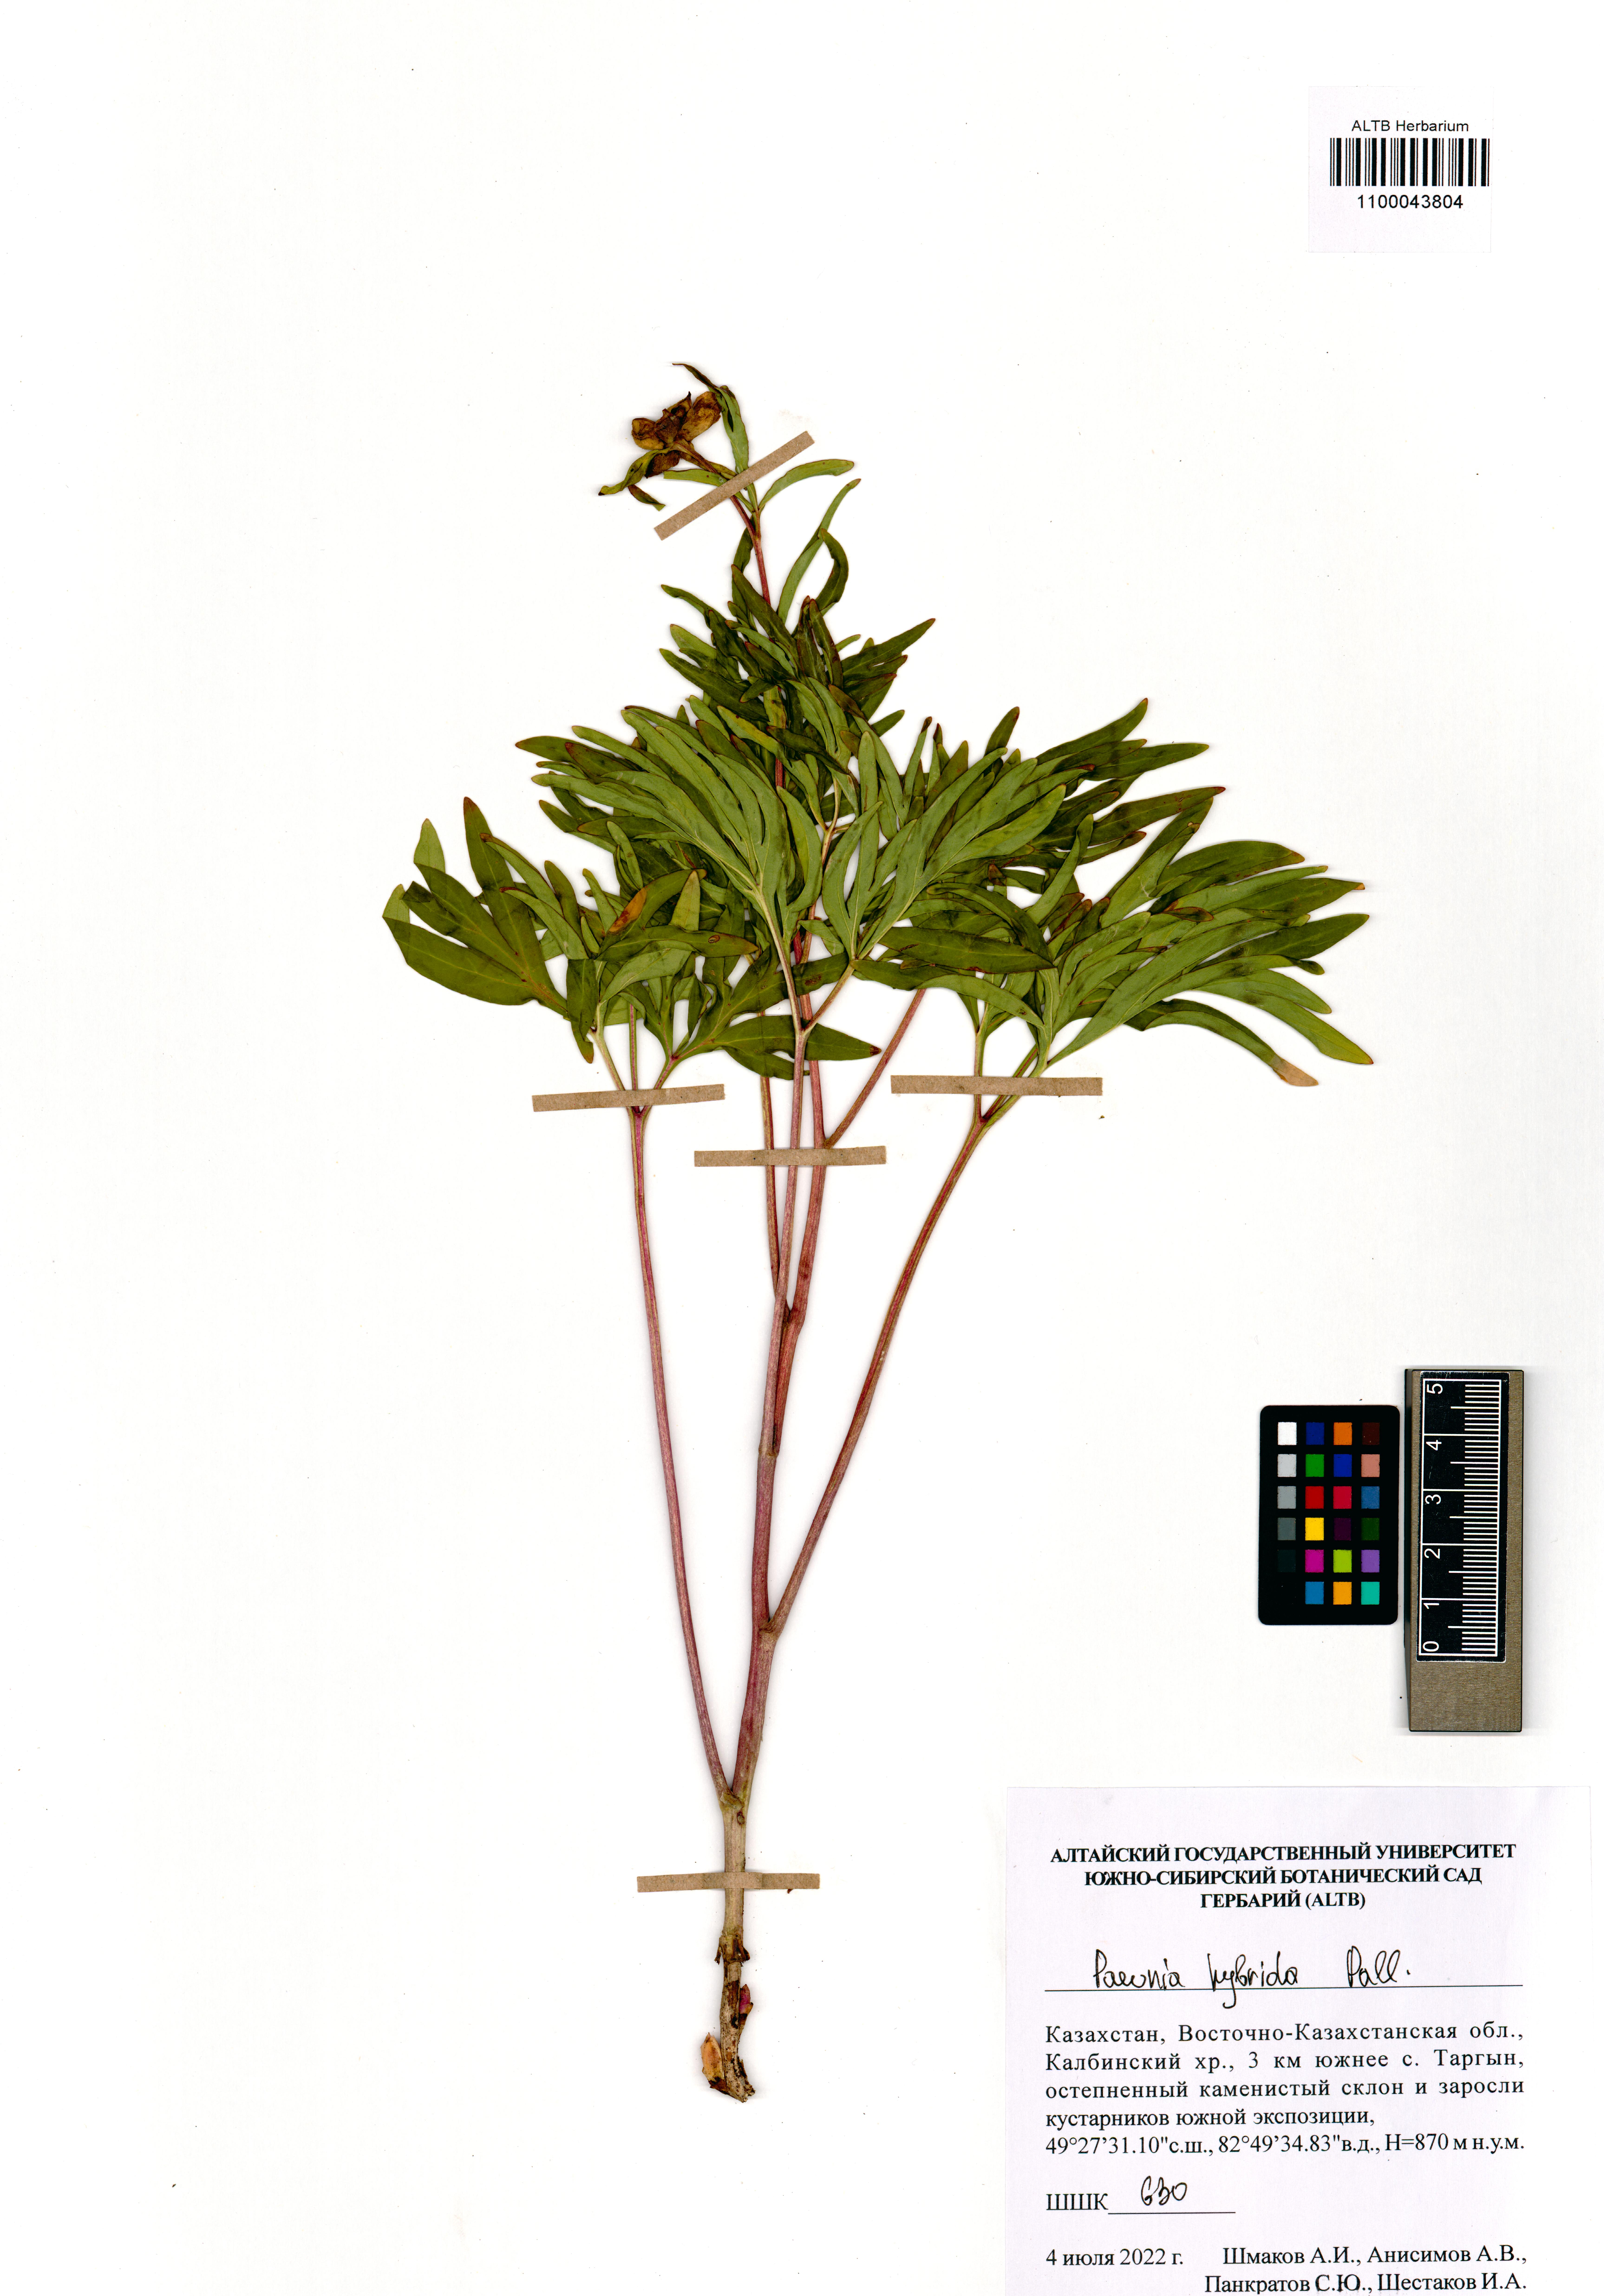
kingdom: Plantae
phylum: Tracheophyta
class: Magnoliopsida
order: Saxifragales
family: Paeoniaceae
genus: Paeonia
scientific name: Paeonia
